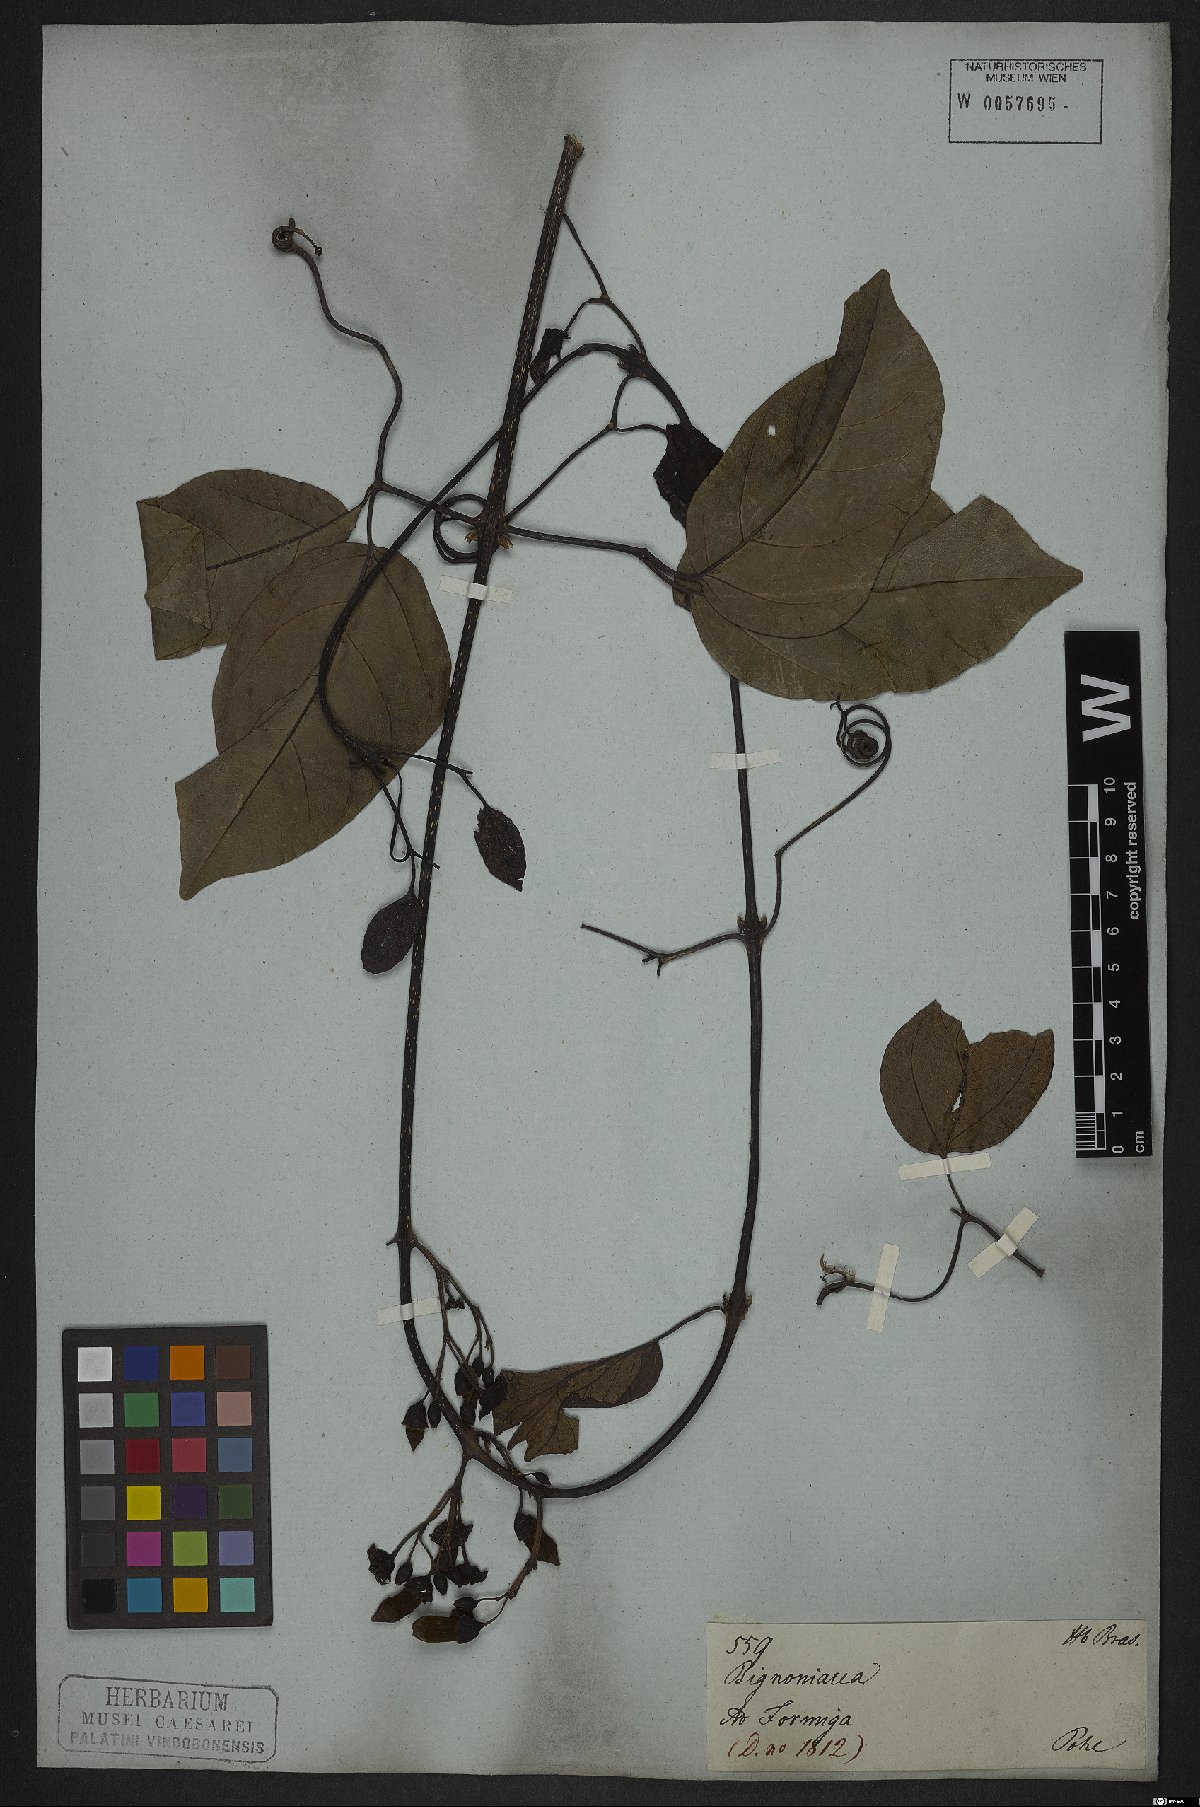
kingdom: Plantae
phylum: Tracheophyta
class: Magnoliopsida
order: Lamiales
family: Bignoniaceae
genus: Tanaecium
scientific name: Tanaecium pyramidatum
